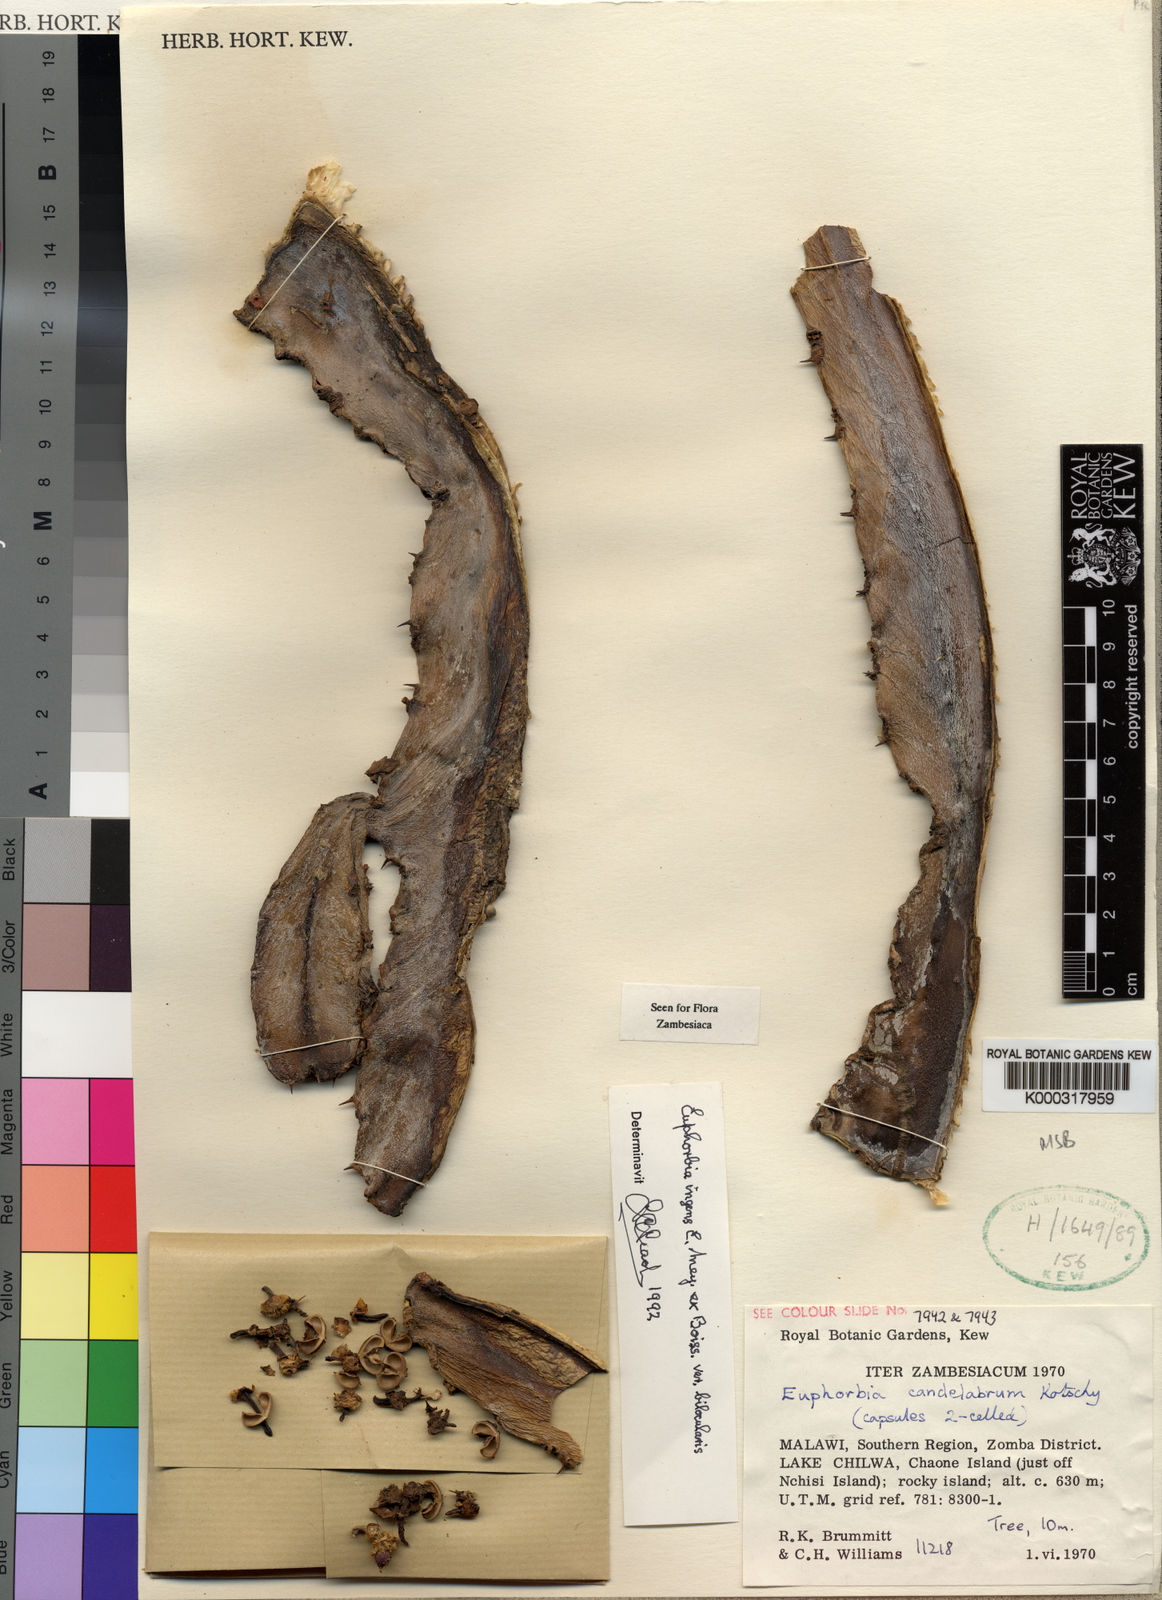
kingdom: Plantae
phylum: Tracheophyta
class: Magnoliopsida
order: Malpighiales
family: Euphorbiaceae
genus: Euphorbia
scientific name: Euphorbia ingens
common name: Cactus spurge
